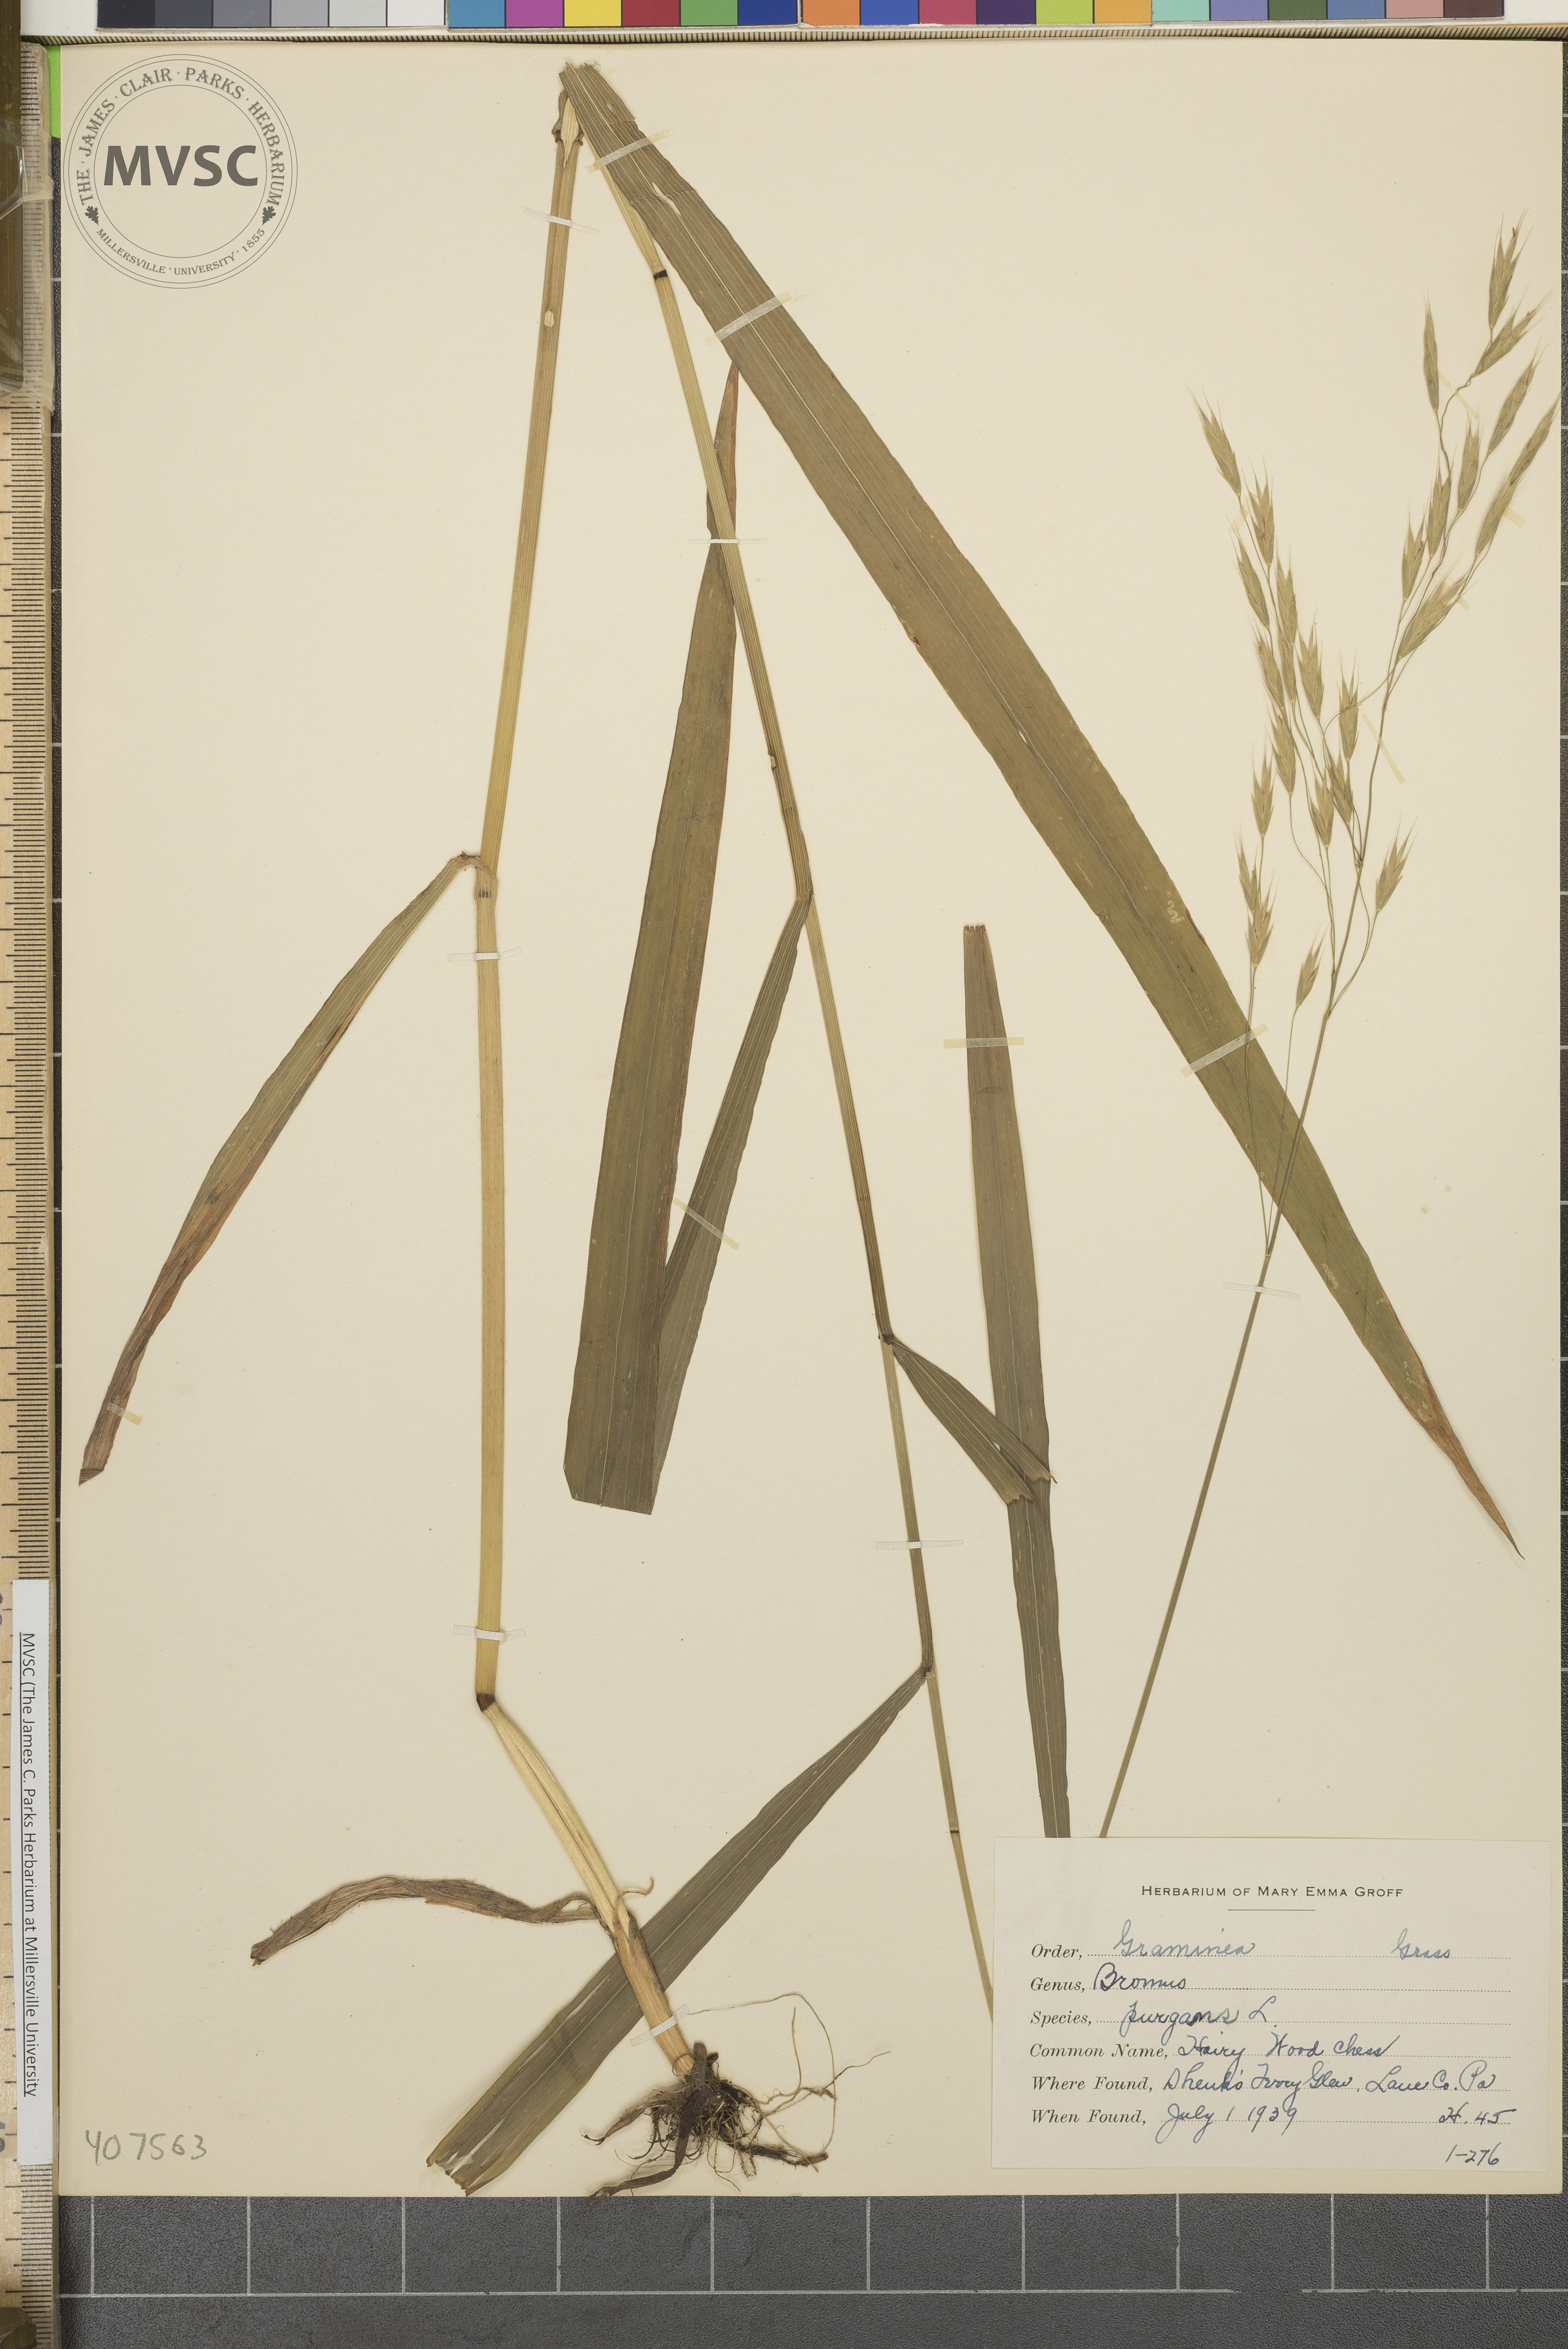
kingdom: Plantae
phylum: Tracheophyta
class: Liliopsida
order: Poales
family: Poaceae
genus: Bromus
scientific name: Bromus kalmii
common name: Kalm brome
